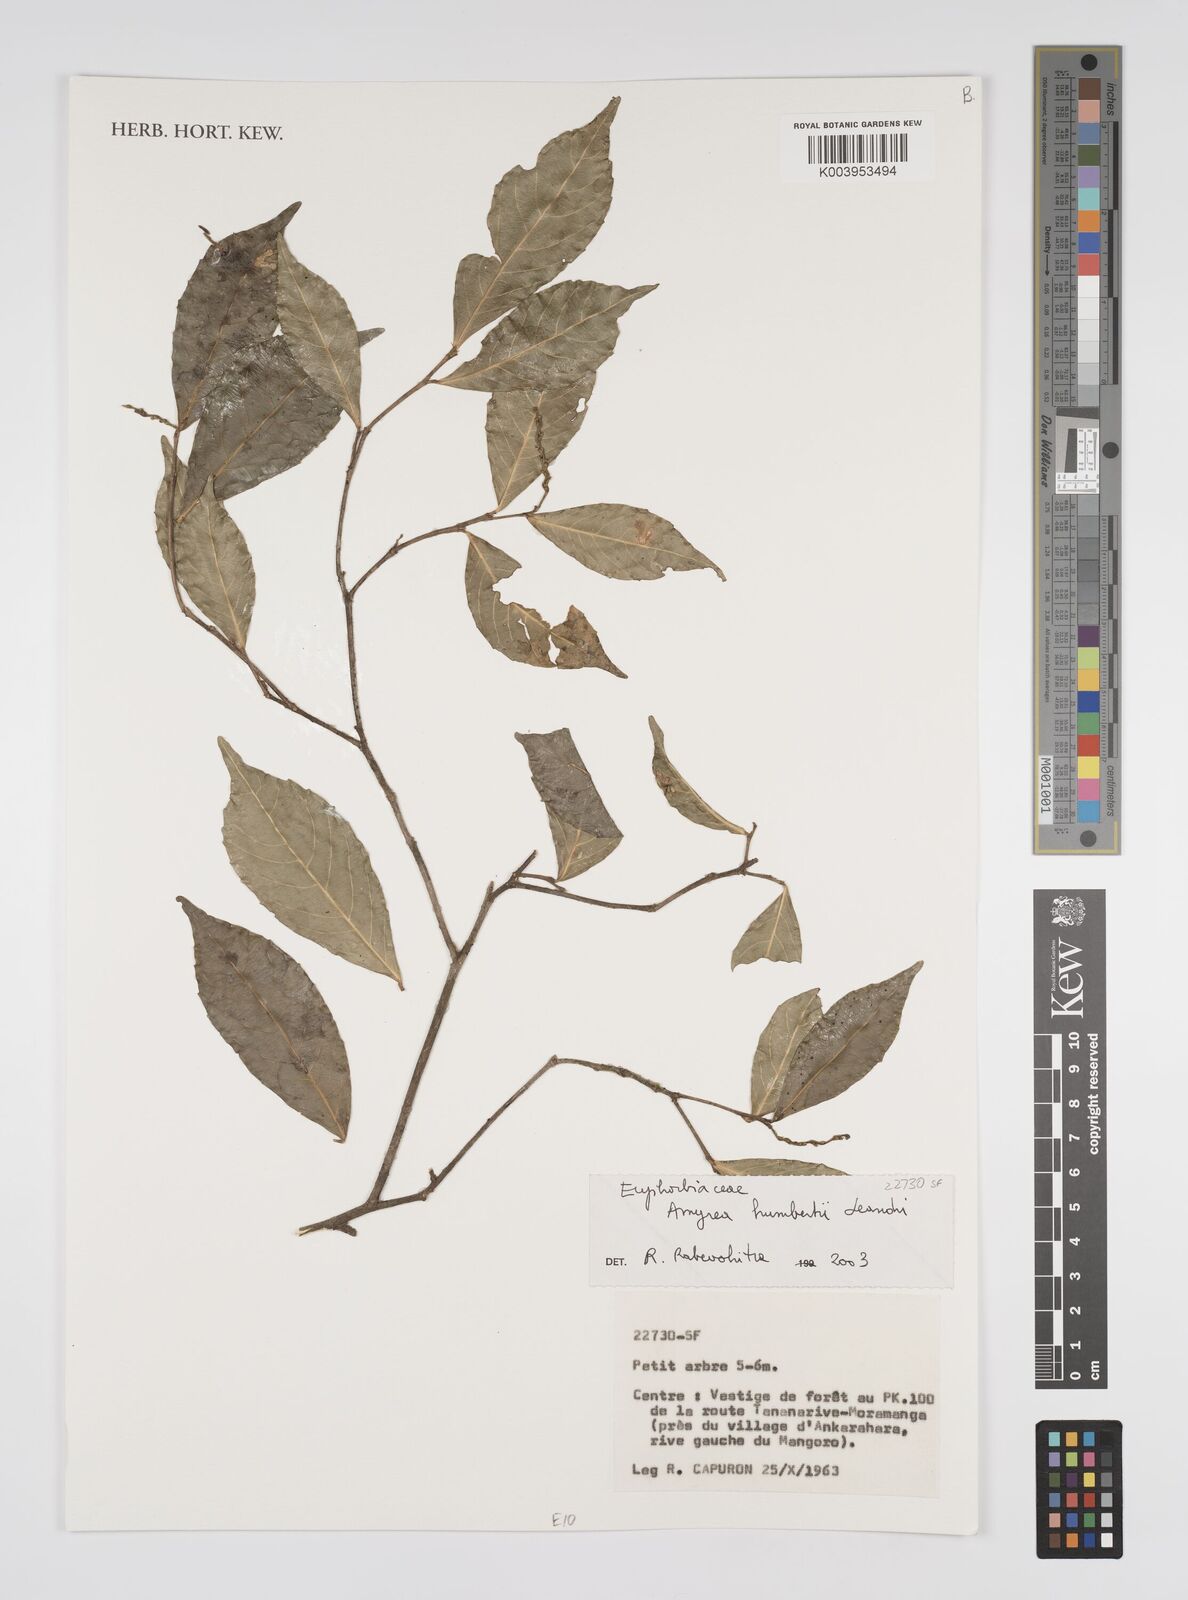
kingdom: Plantae
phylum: Tracheophyta
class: Magnoliopsida
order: Malpighiales
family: Euphorbiaceae
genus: Amyrea
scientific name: Amyrea humbertii
